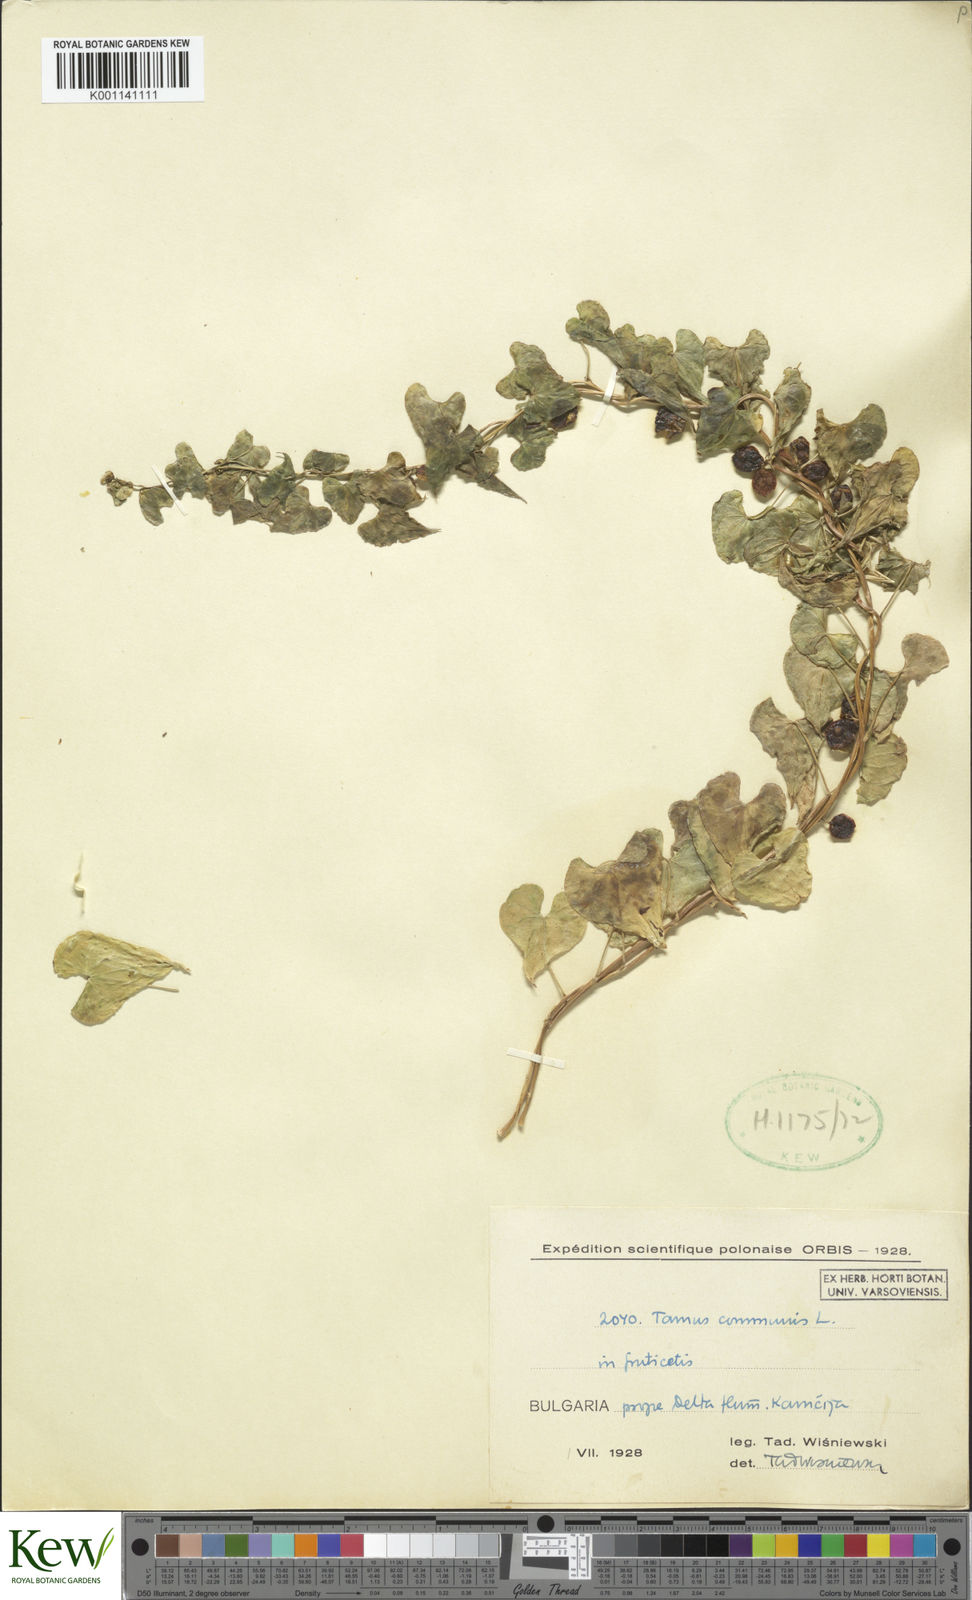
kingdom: Plantae
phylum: Tracheophyta
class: Liliopsida
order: Dioscoreales
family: Dioscoreaceae
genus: Dioscorea
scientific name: Dioscorea communis
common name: Black-bindweed
